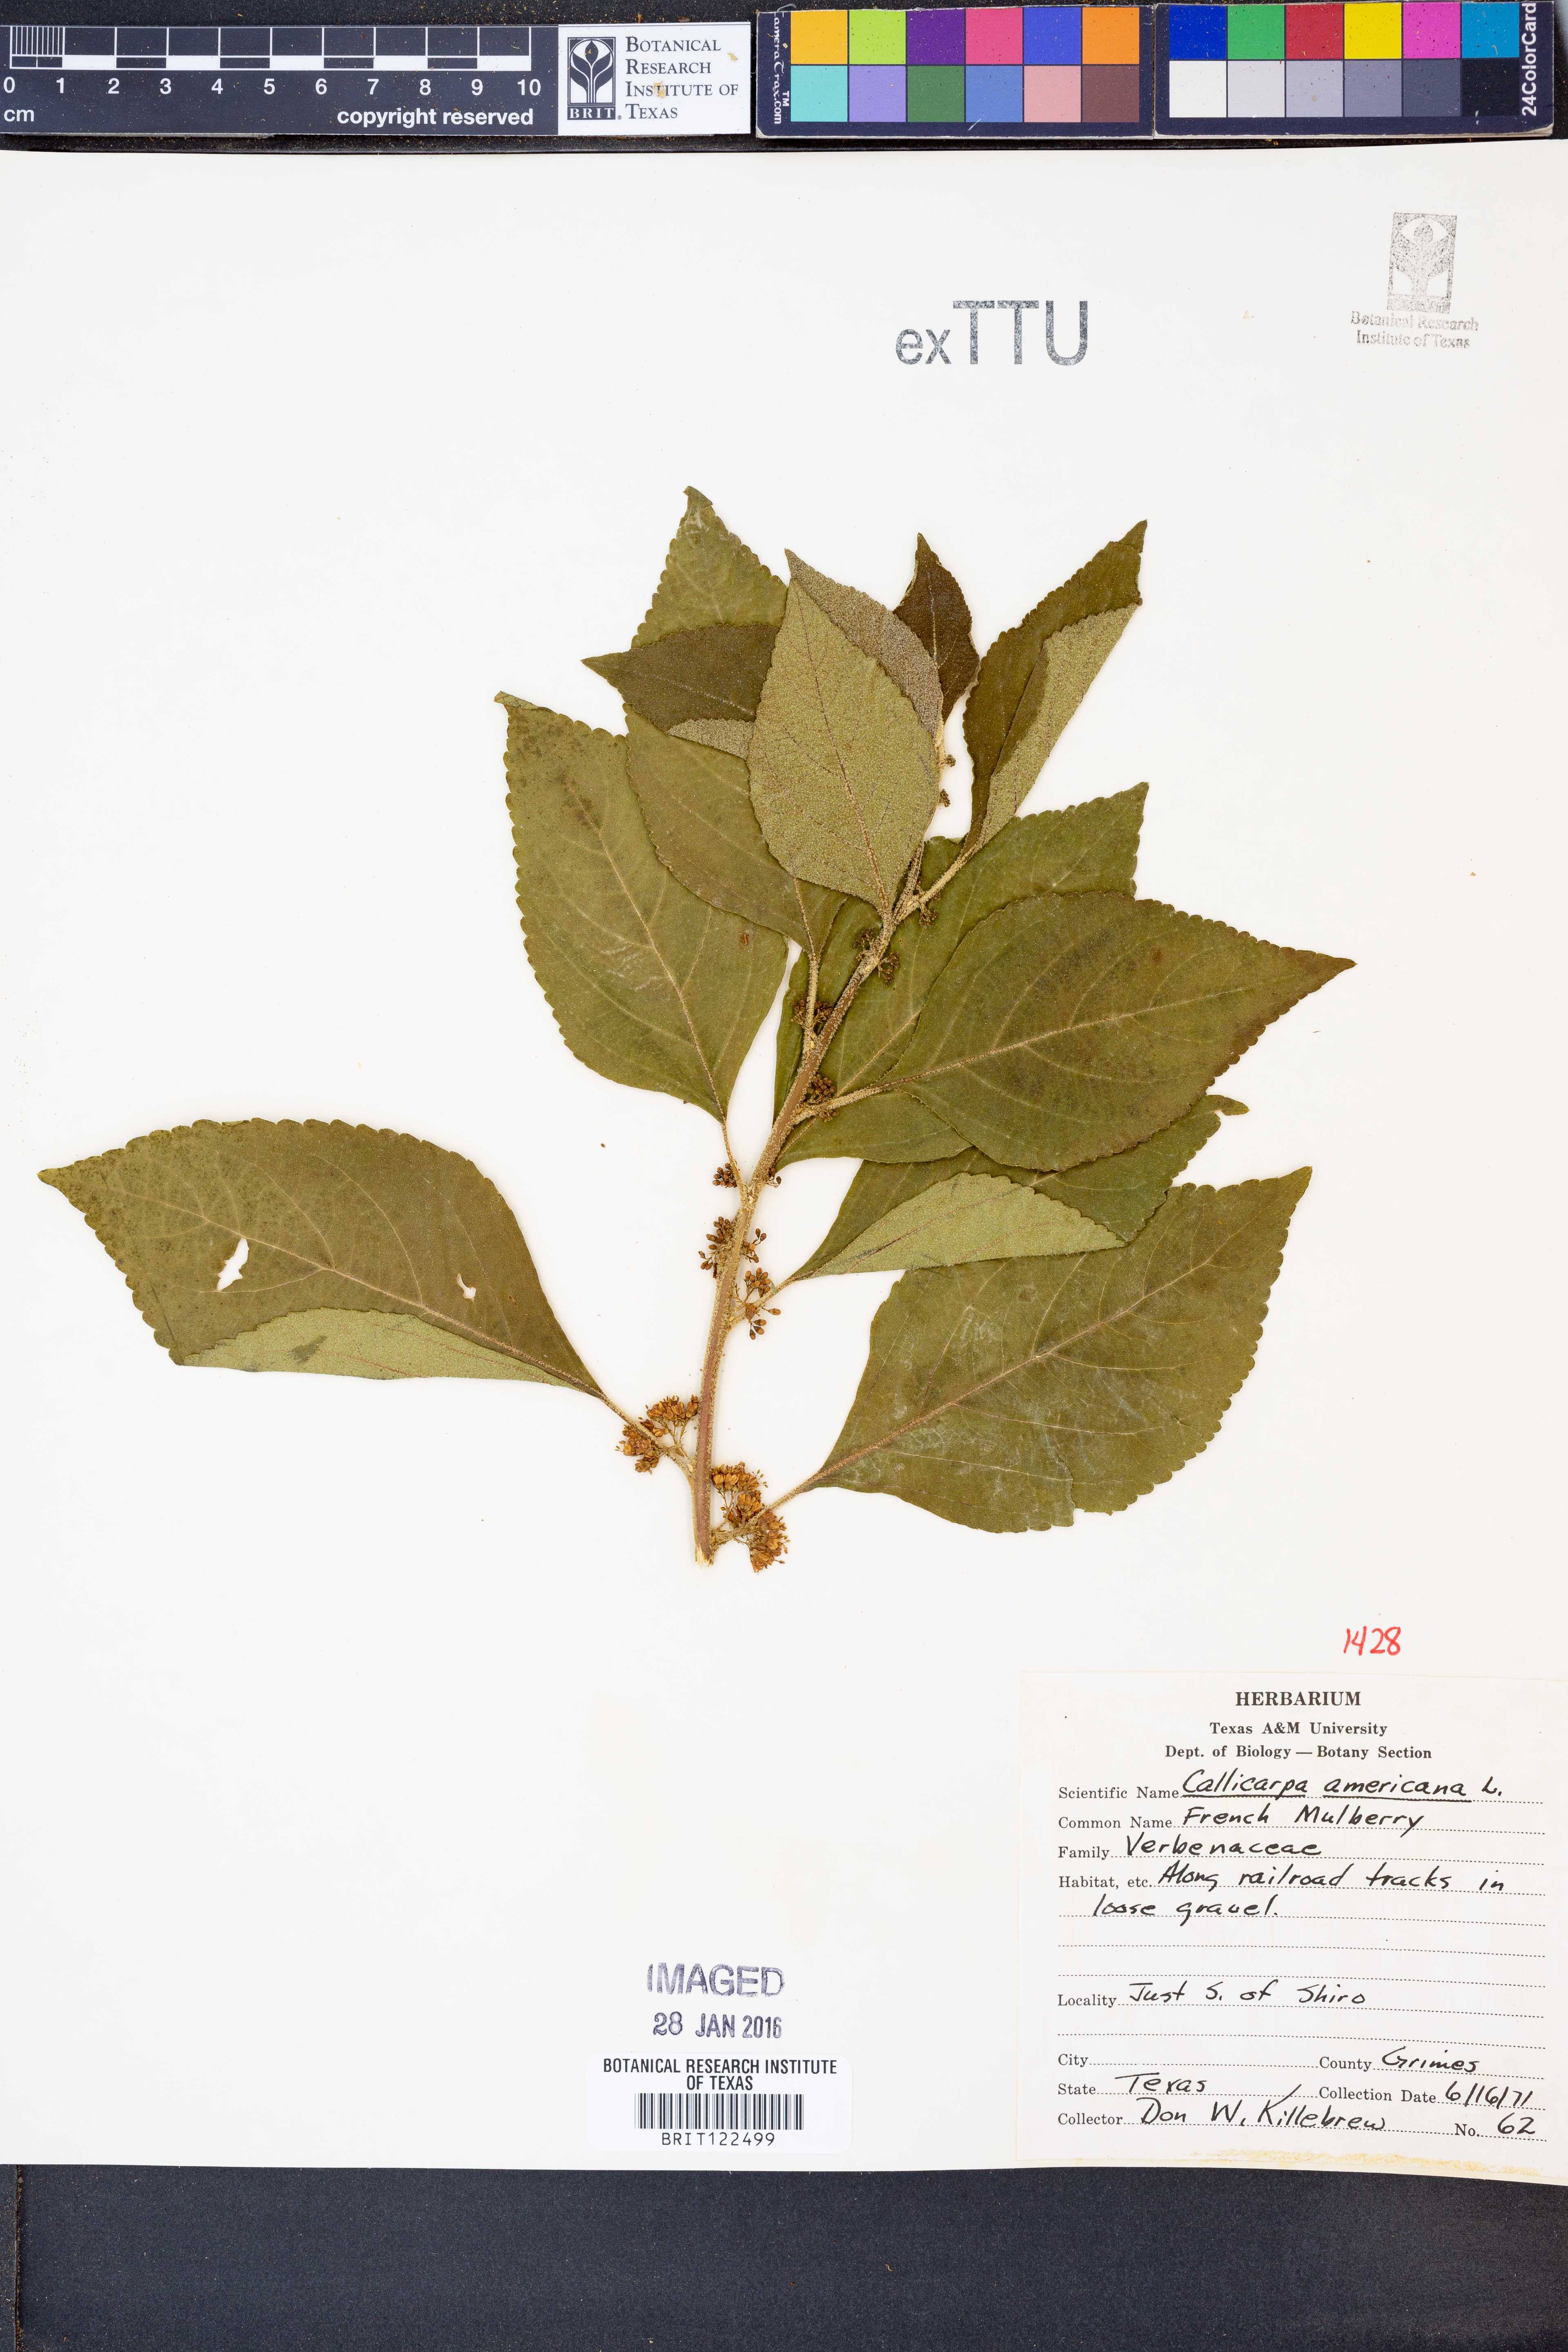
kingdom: Plantae
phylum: Tracheophyta
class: Magnoliopsida
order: Lamiales
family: Lamiaceae
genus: Callicarpa
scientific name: Callicarpa americana
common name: American beautyberry
